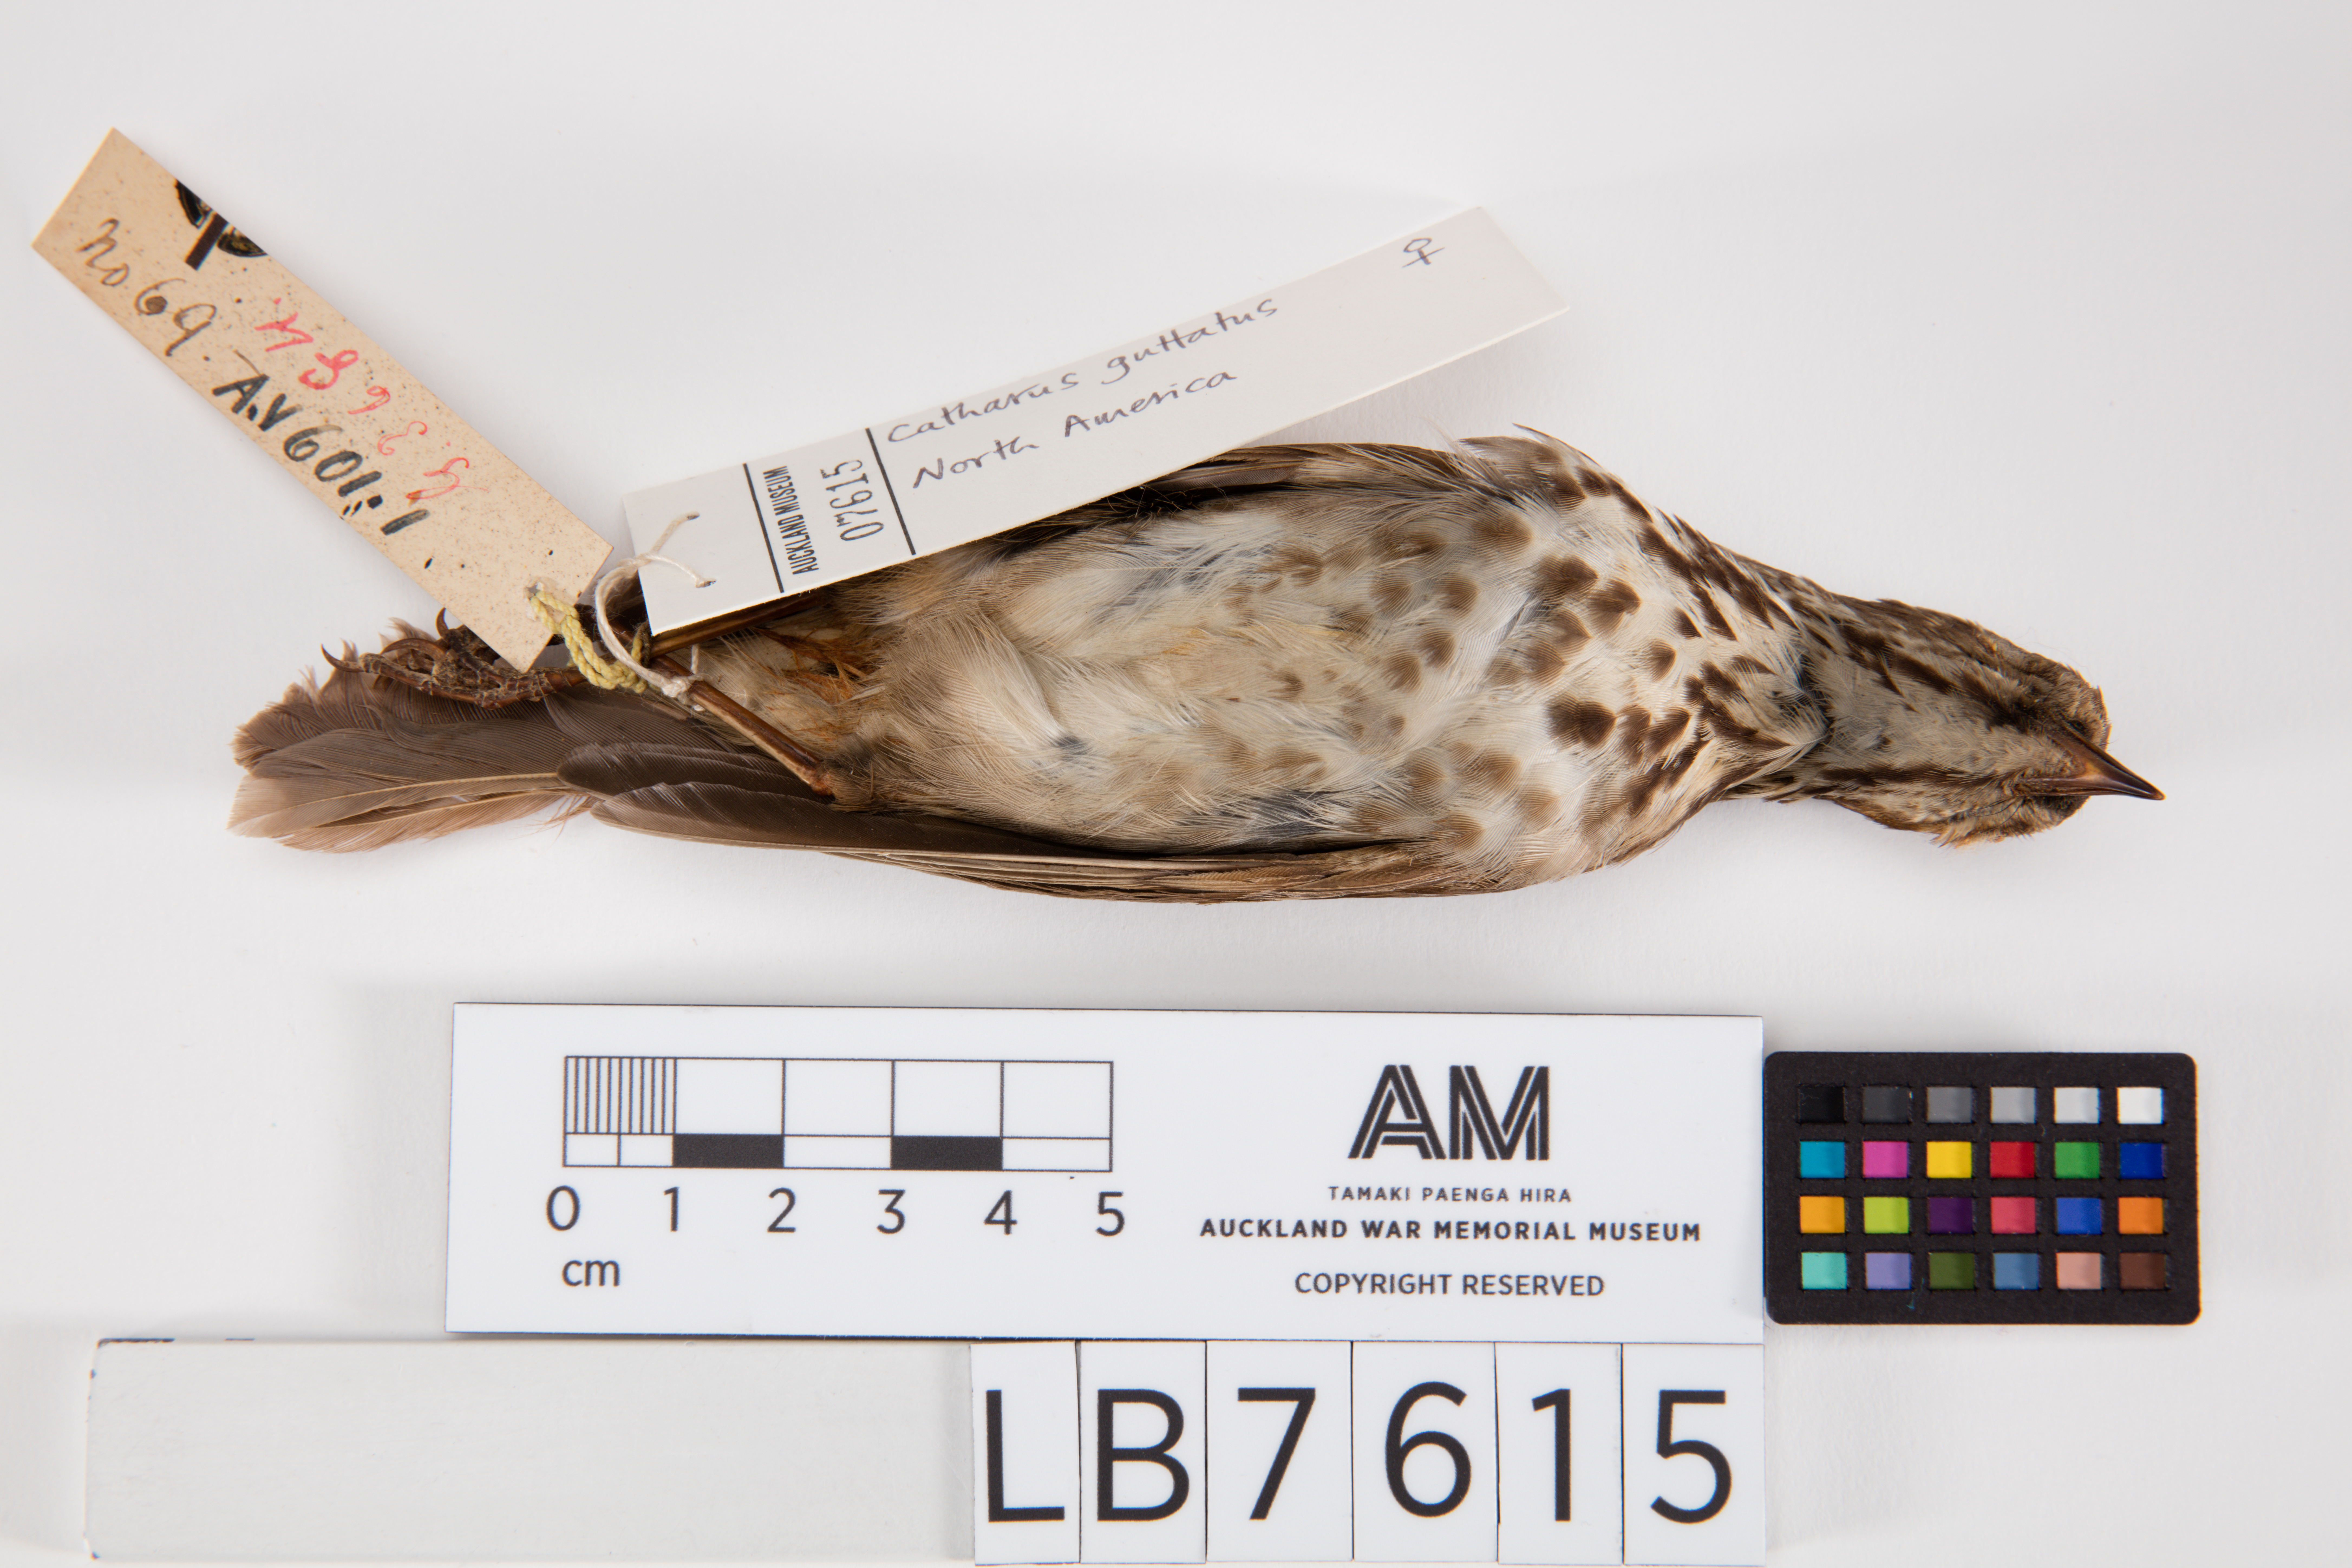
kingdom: Animalia
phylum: Chordata
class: Aves
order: Passeriformes
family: Turdidae
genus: Catharus
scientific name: Catharus guttatus
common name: Hermit thrush
